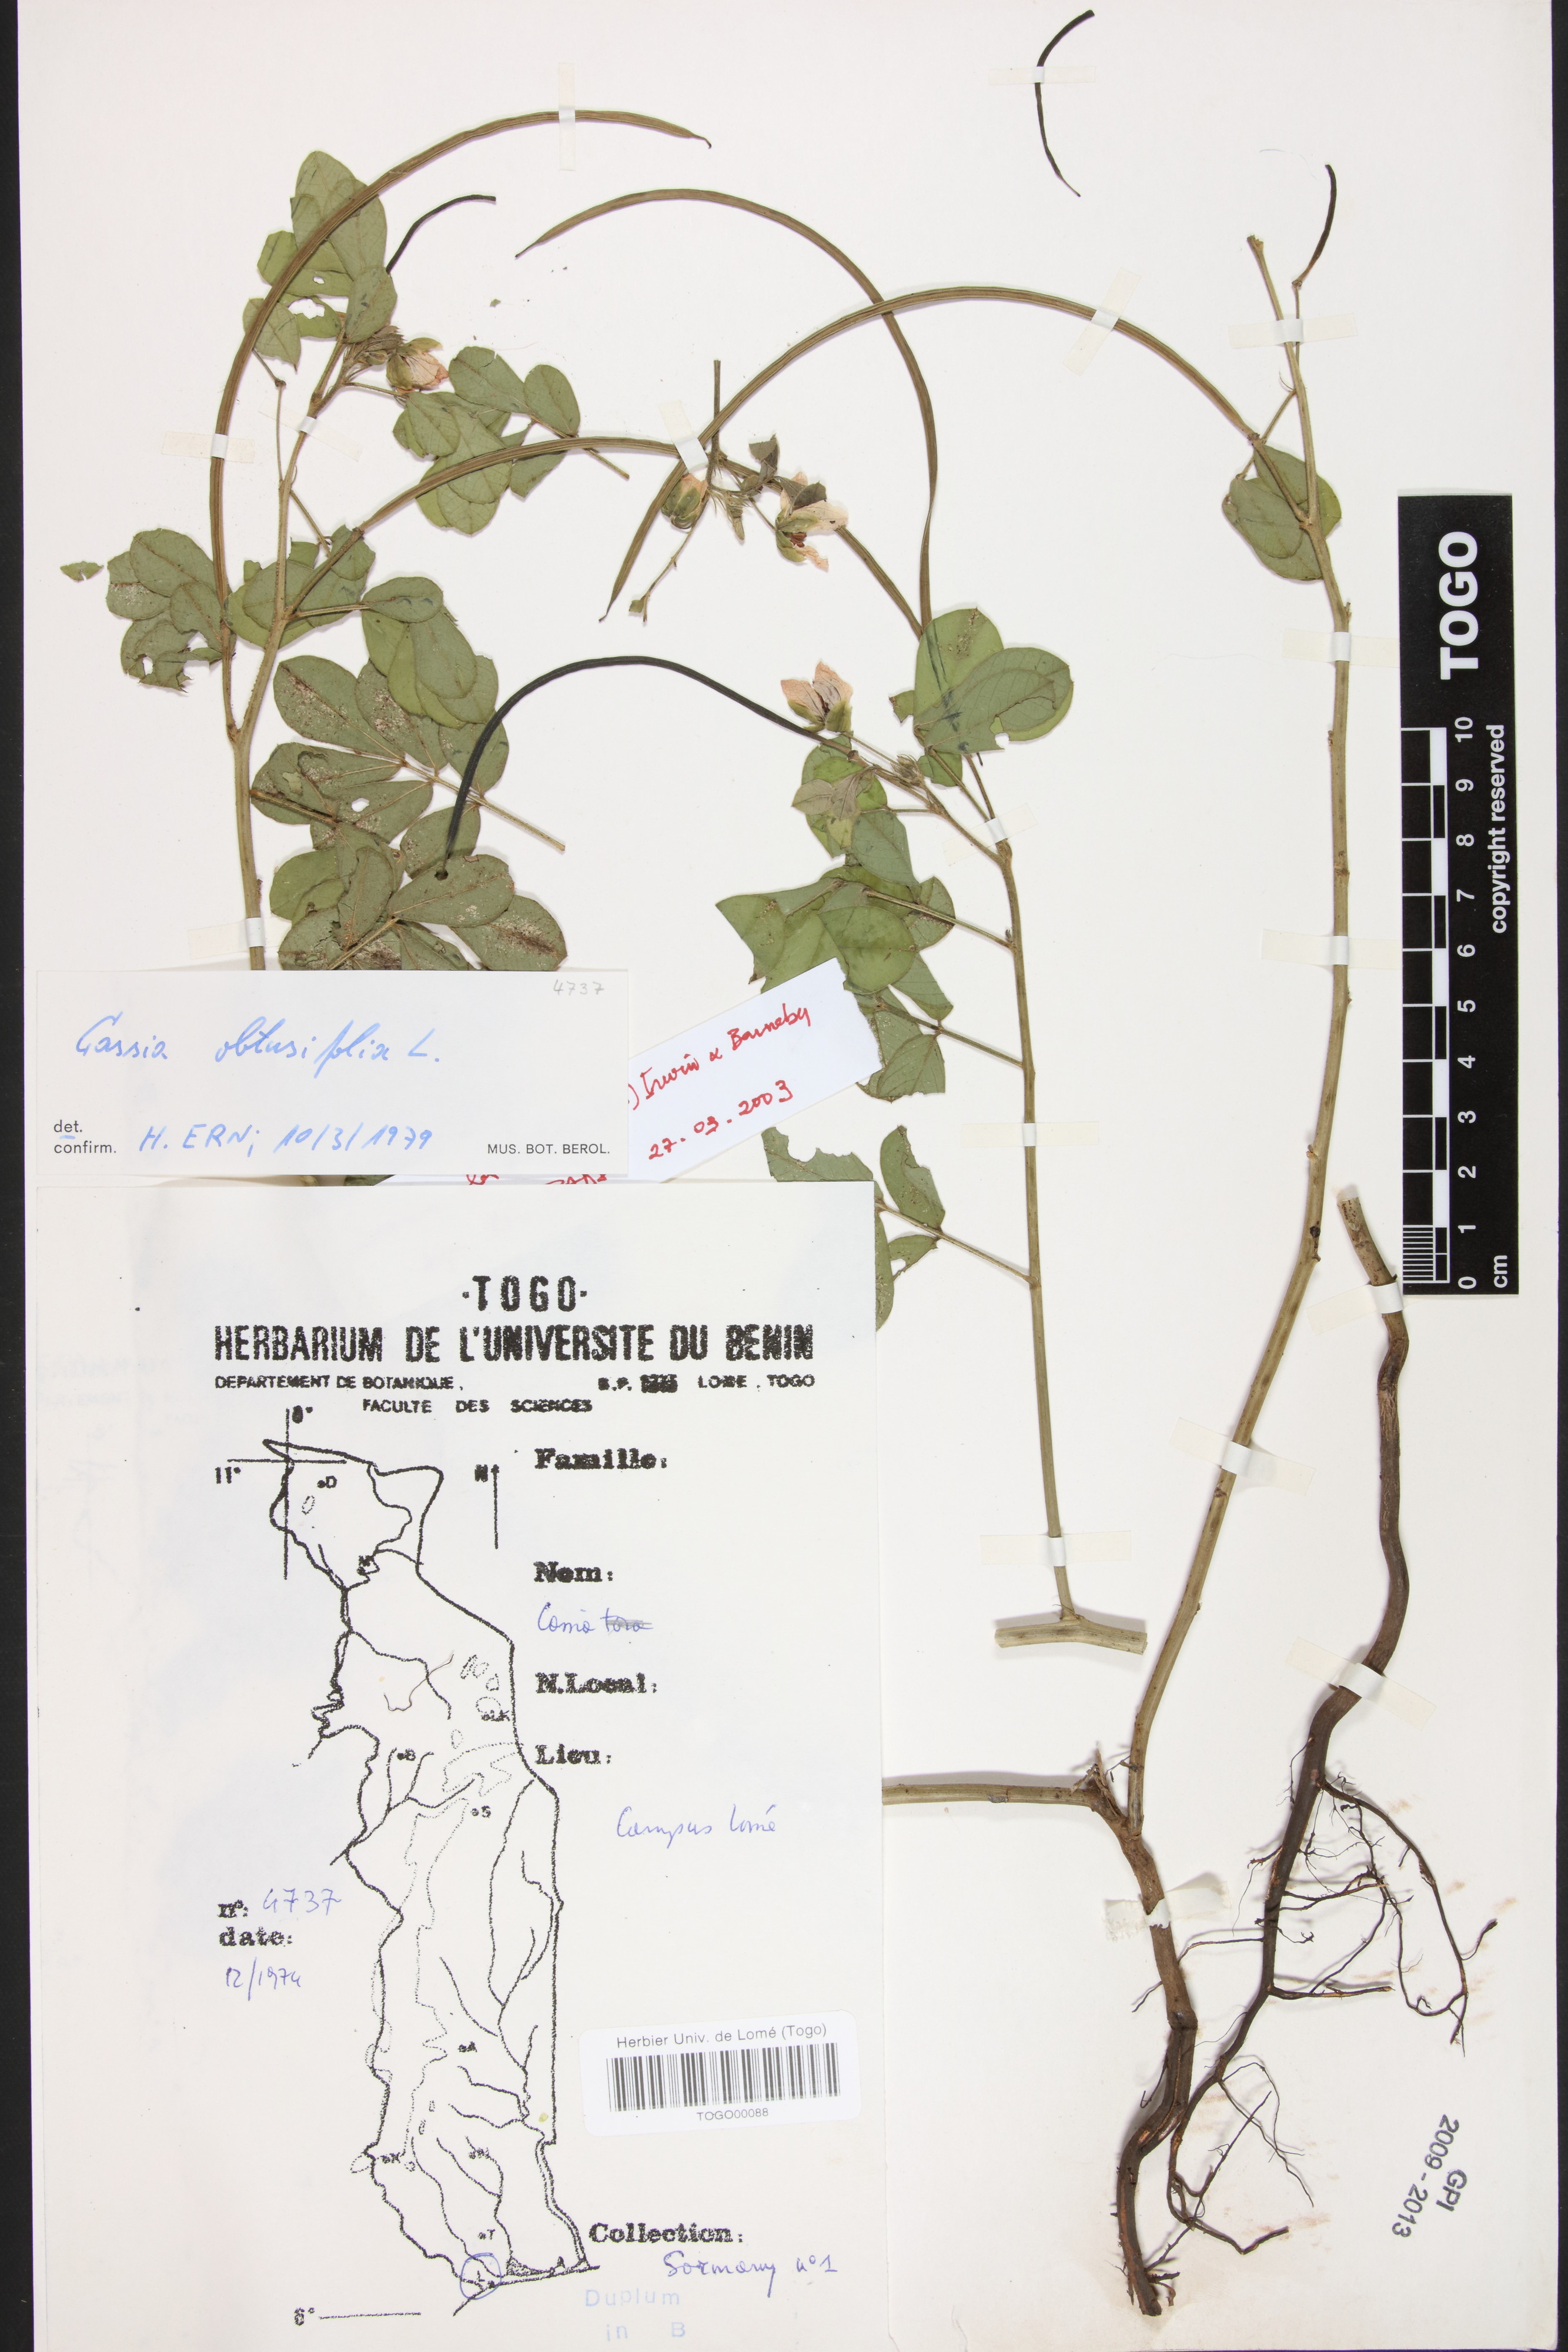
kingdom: Plantae
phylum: Tracheophyta
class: Magnoliopsida
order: Fabales
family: Fabaceae
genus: Senna
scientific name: Senna obtusifolia
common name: Java-bean
